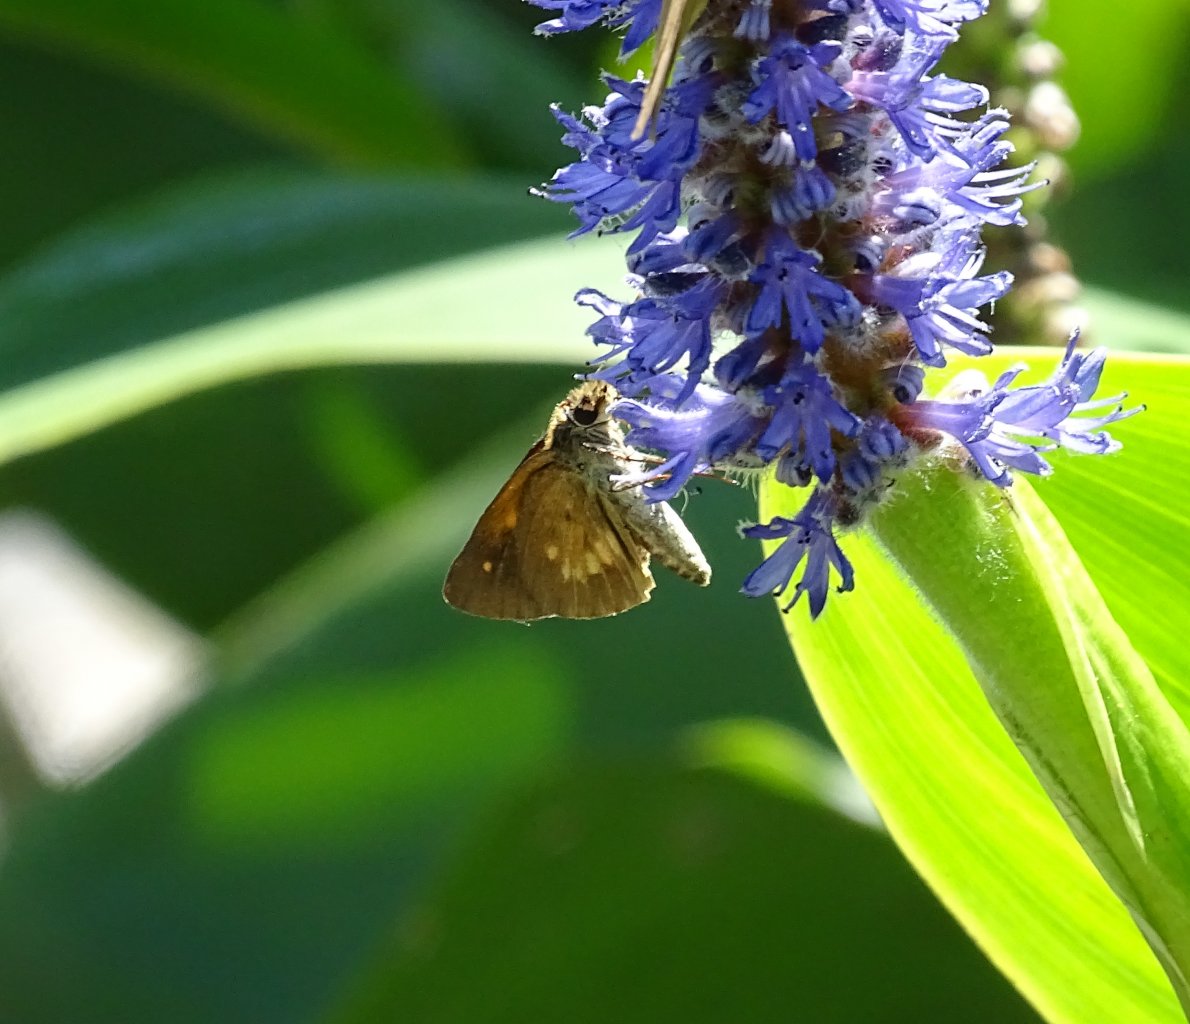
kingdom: Animalia
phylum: Arthropoda
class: Insecta
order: Lepidoptera
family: Hesperiidae
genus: Poanes
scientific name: Poanes viator
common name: Broad-winged Skipper
